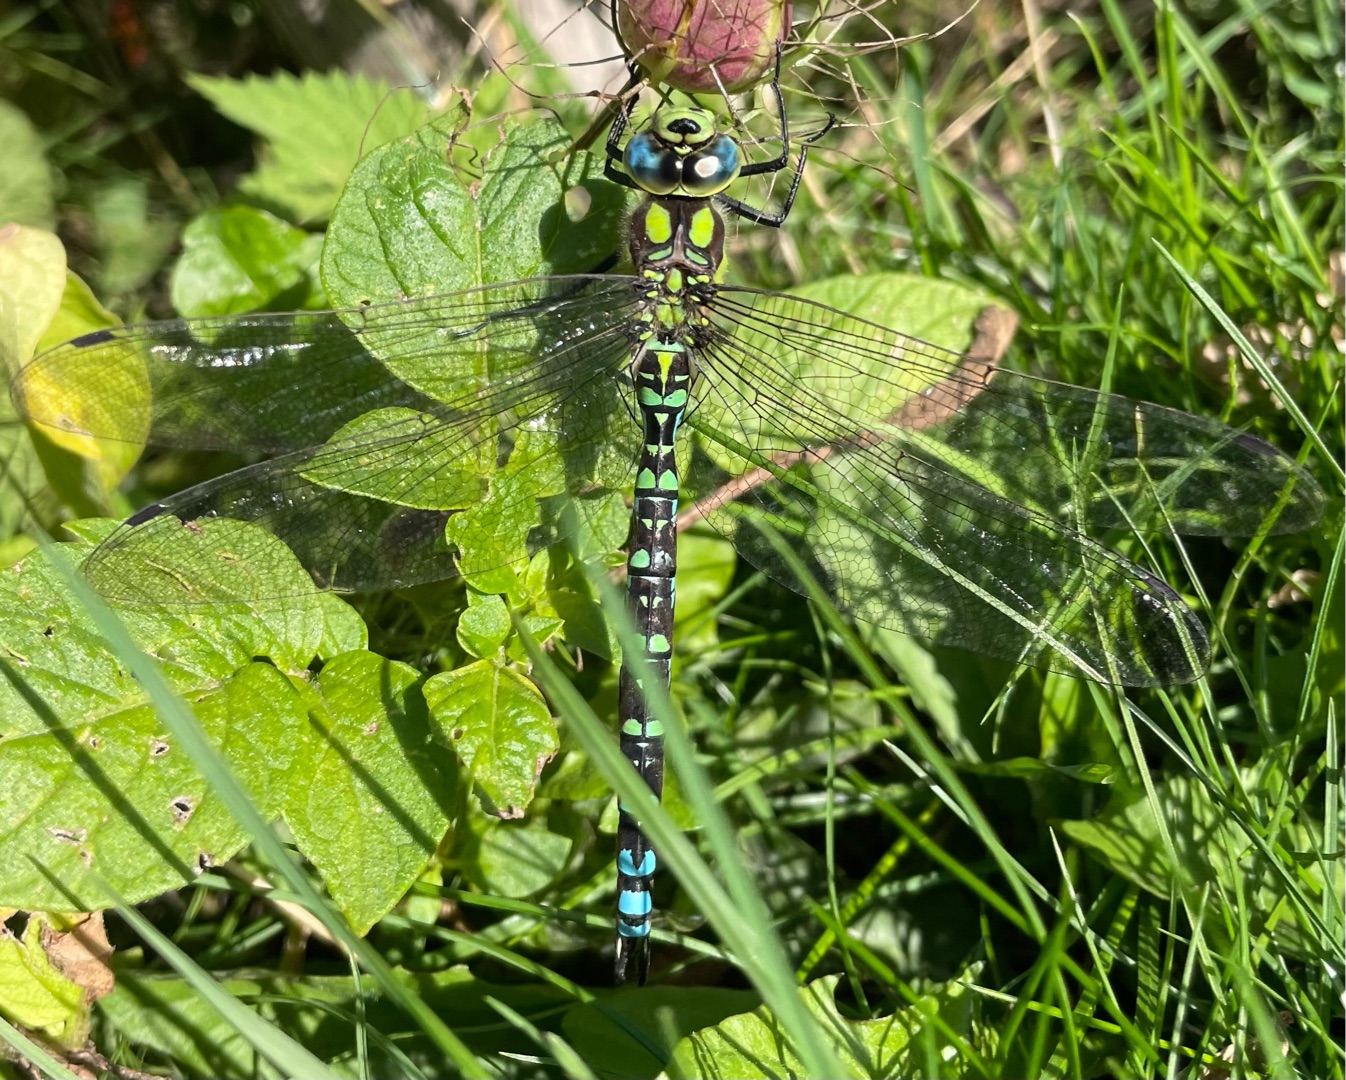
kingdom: Animalia
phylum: Arthropoda
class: Insecta
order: Odonata
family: Aeshnidae
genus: Aeshna
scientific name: Aeshna cyanea
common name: Blå mosaikguldsmed
